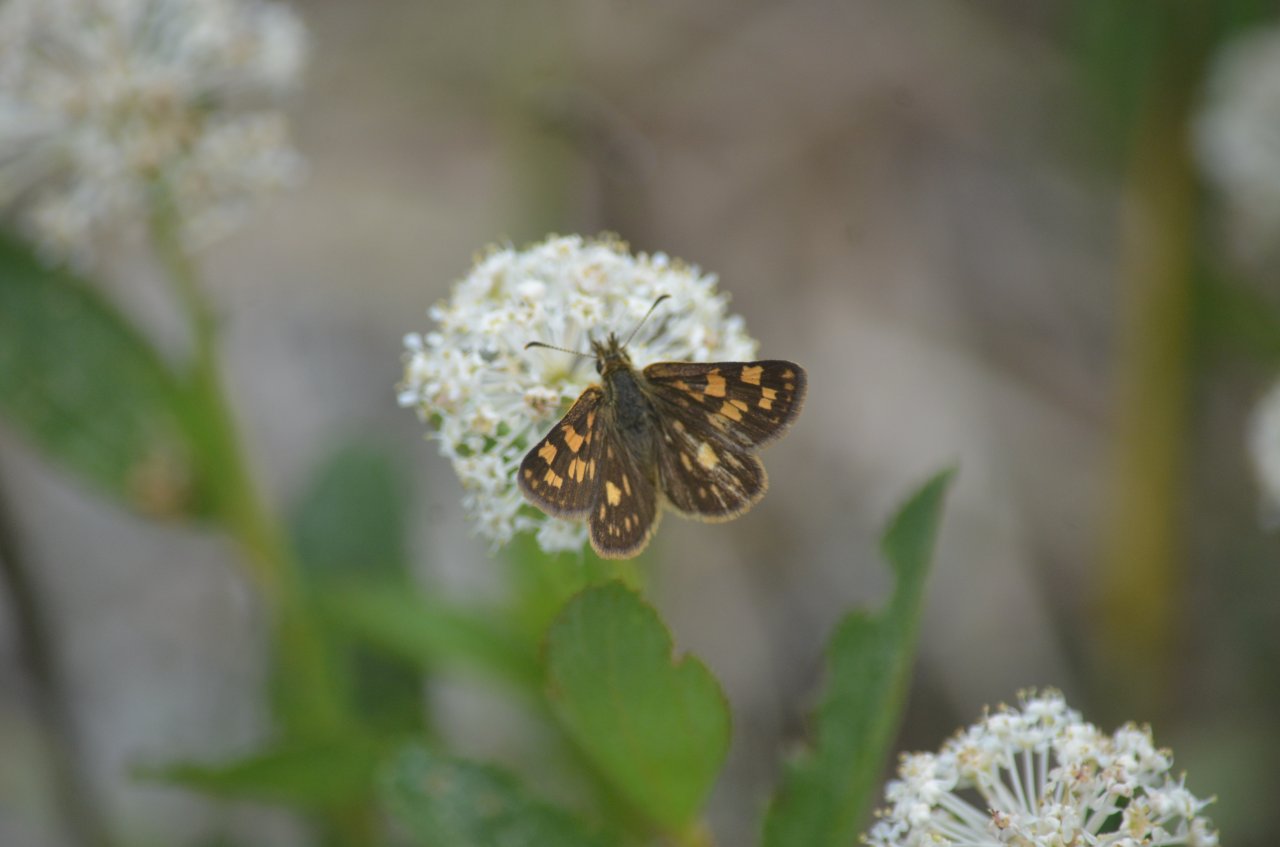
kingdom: Animalia
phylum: Arthropoda
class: Insecta
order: Lepidoptera
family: Hesperiidae
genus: Carterocephalus
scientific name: Carterocephalus palaemon
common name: Chequered Skipper
